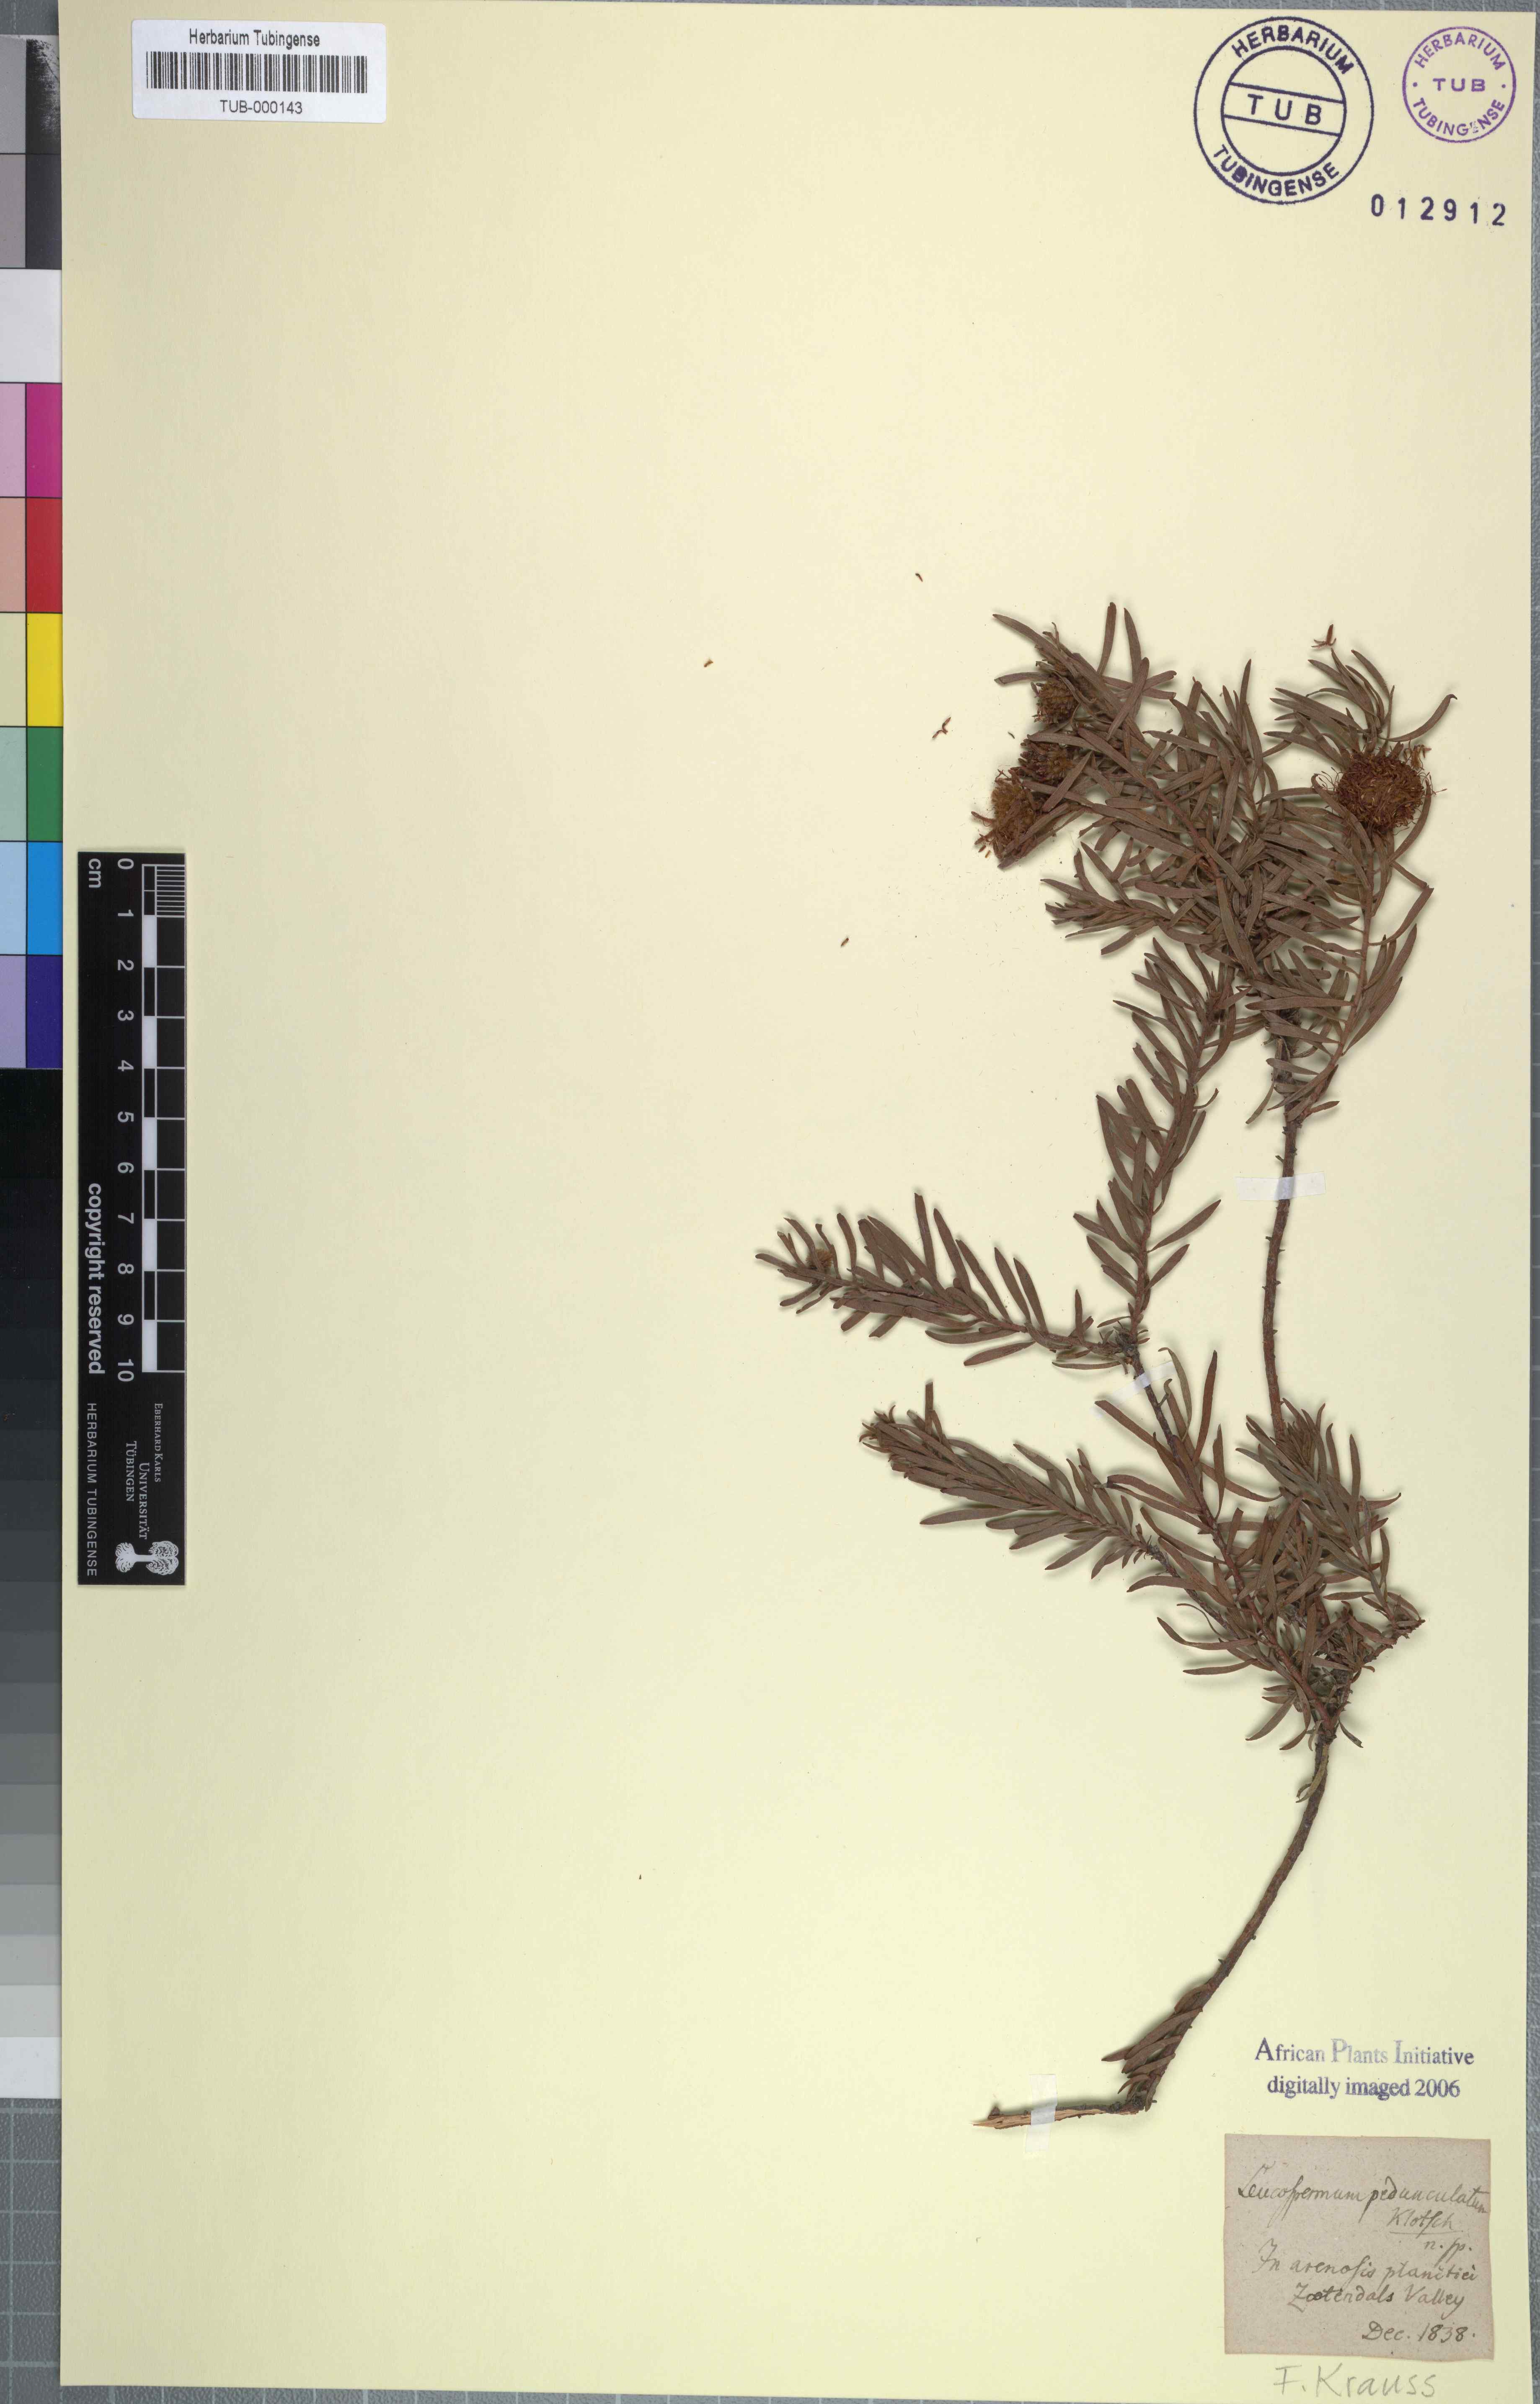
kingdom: Plantae
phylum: Tracheophyta
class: Magnoliopsida
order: Proteales
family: Proteaceae
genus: Leucospermum
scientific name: Leucospermum pedunculatum
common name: White-trailing pincushion
